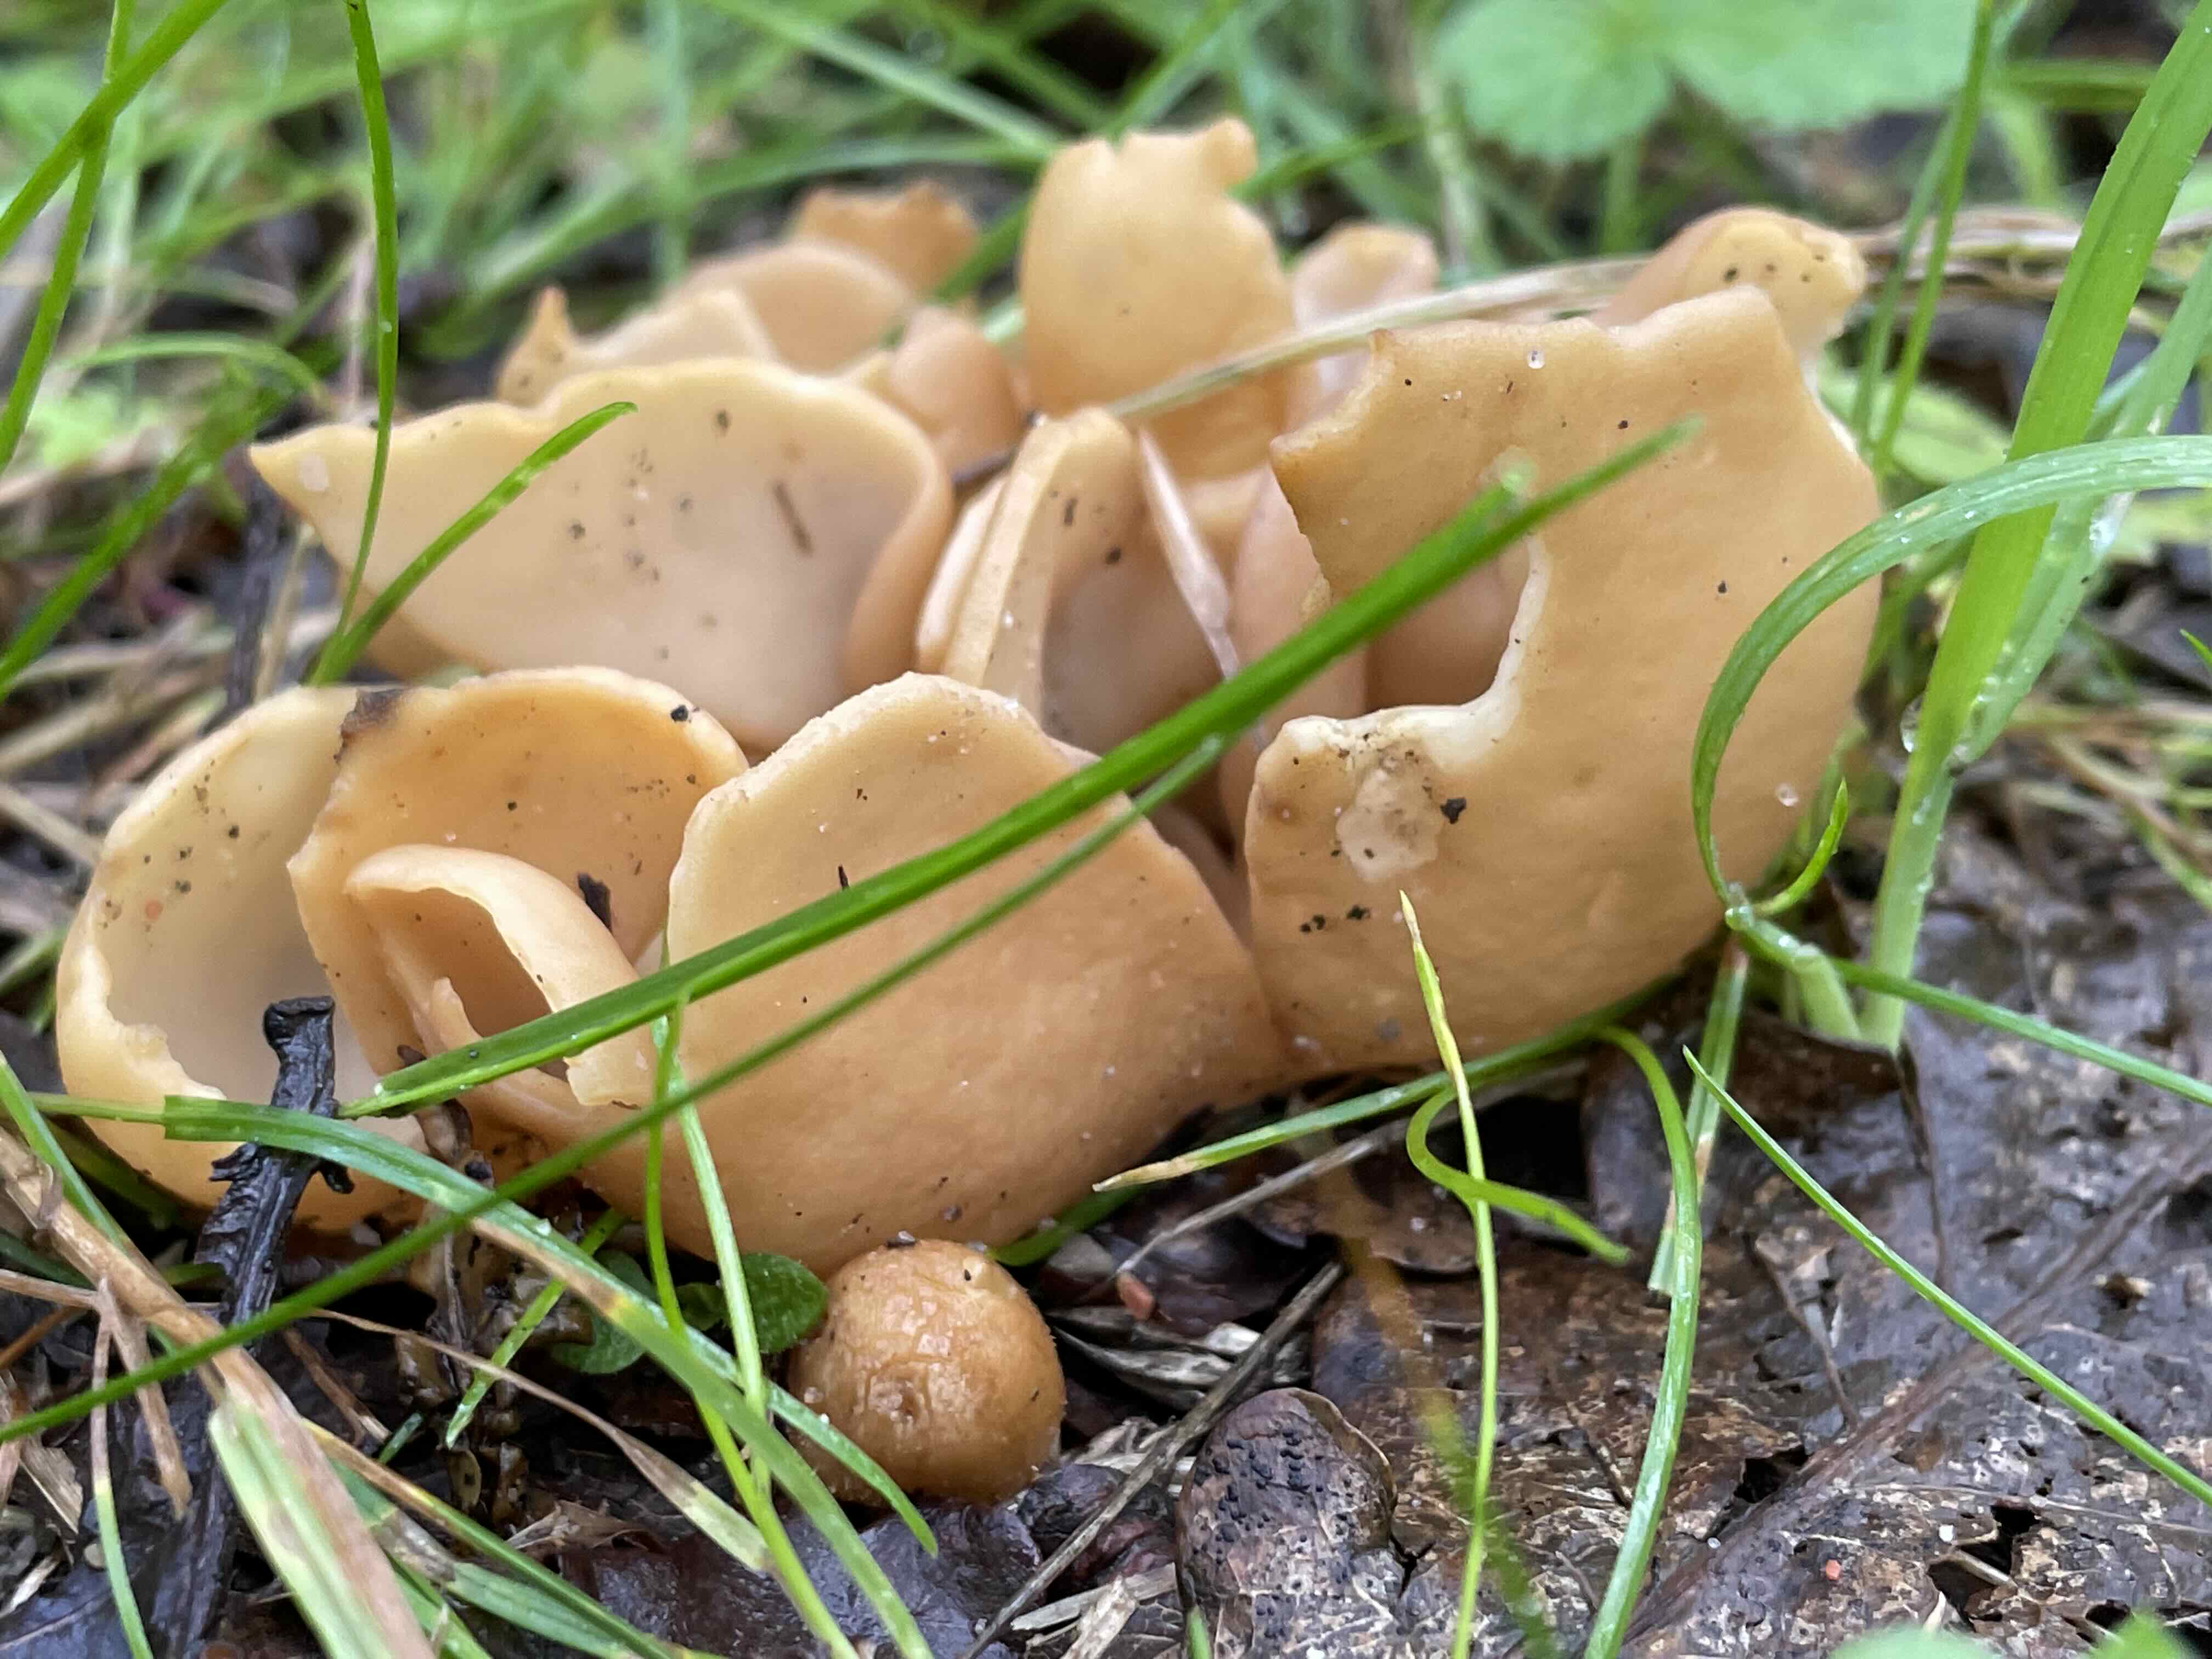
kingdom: Fungi
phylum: Ascomycota
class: Pezizomycetes
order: Pezizales
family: Otideaceae
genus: Otidea
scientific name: Otidea
